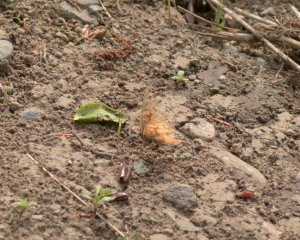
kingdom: Animalia
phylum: Arthropoda
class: Insecta
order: Lepidoptera
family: Nymphalidae
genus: Vanessa
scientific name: Vanessa virginiensis
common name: American Lady
